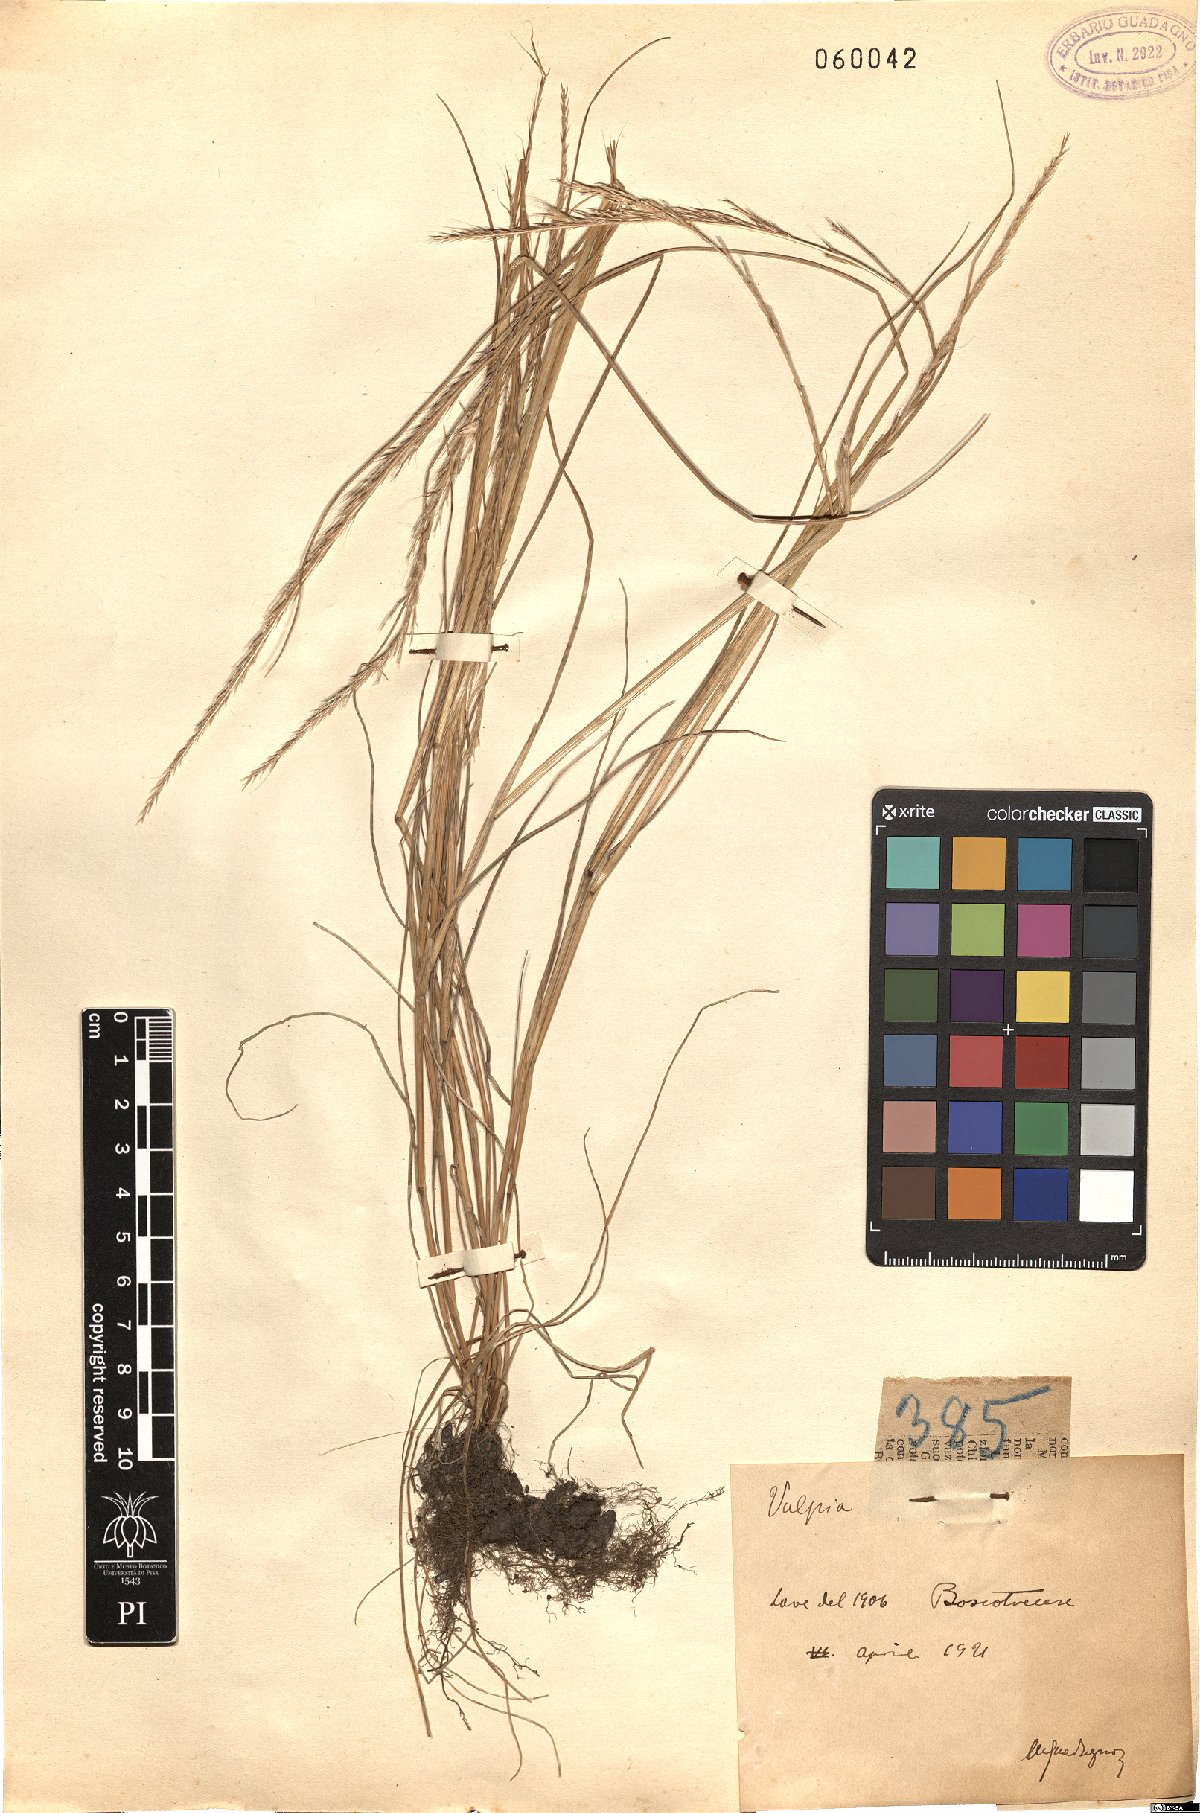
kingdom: Plantae
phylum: Tracheophyta
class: Liliopsida
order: Poales
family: Poaceae
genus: Festuca
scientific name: Festuca
